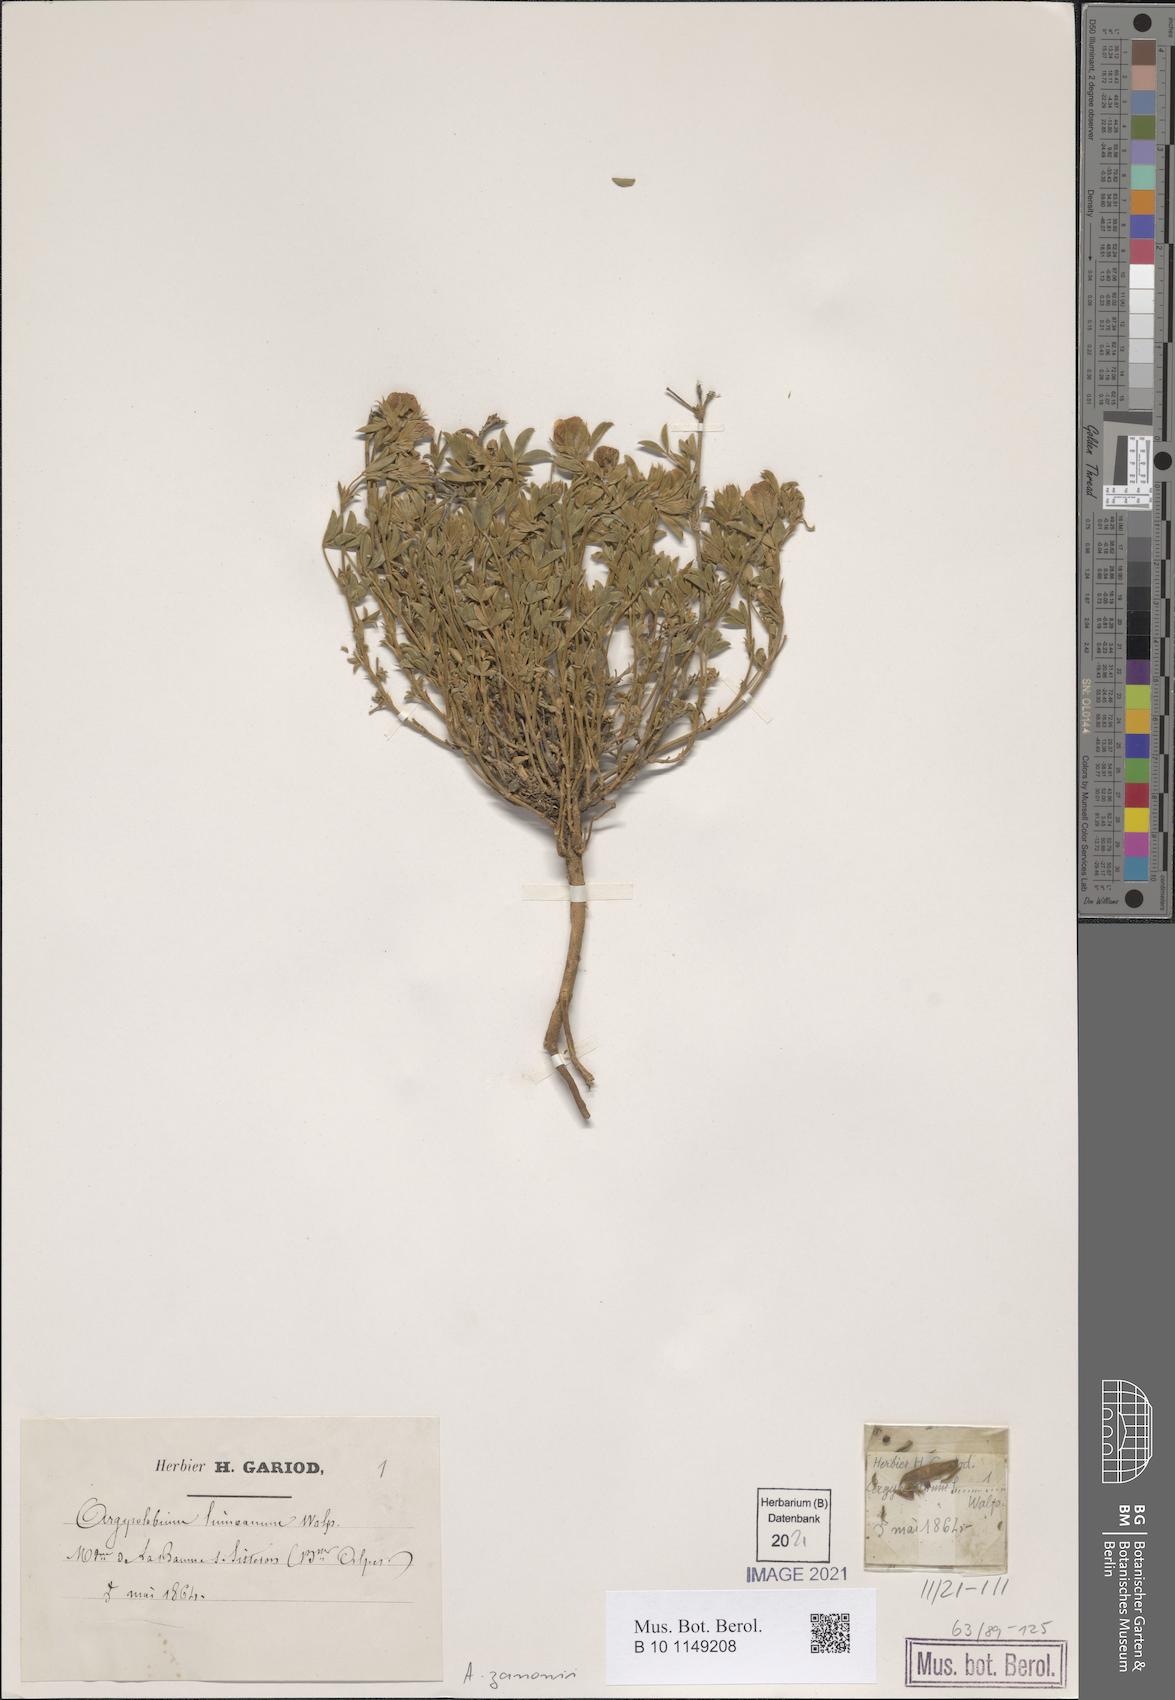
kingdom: Plantae
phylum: Tracheophyta
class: Magnoliopsida
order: Fabales
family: Fabaceae
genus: Argyrolobium
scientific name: Argyrolobium zanonii
